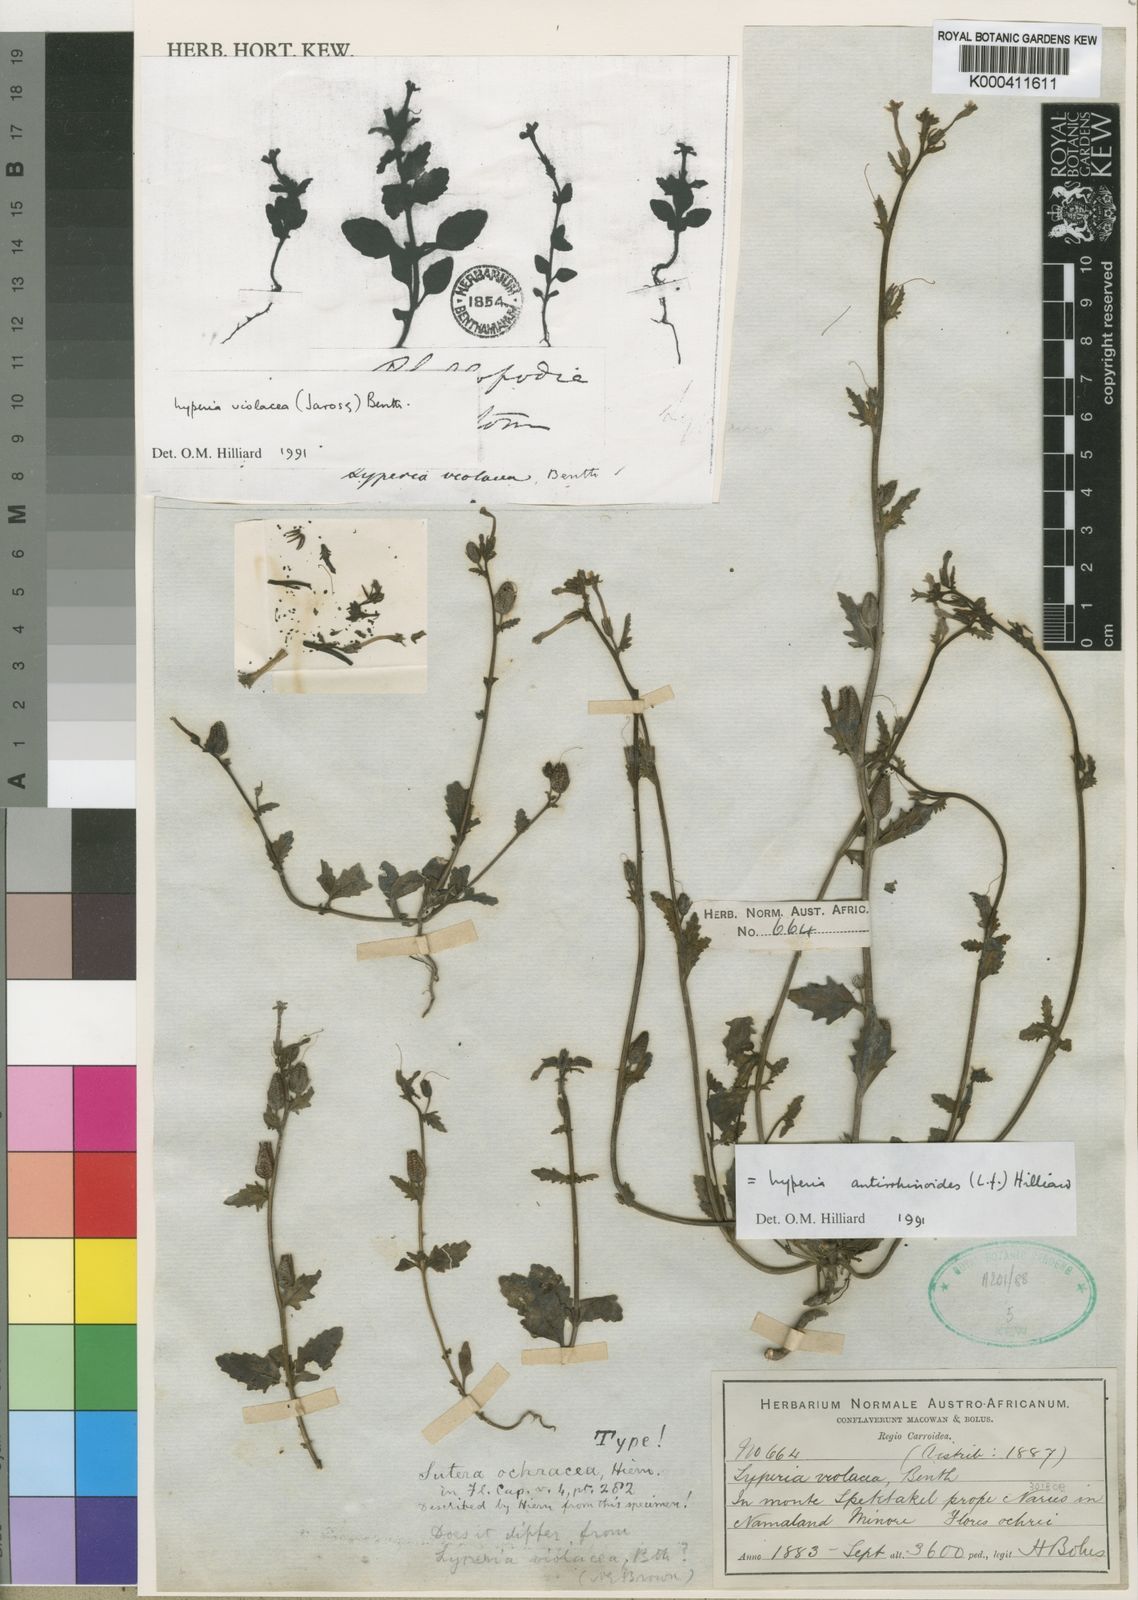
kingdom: Plantae
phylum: Tracheophyta
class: Magnoliopsida
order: Lamiales
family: Scrophulariaceae
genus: Lyperia
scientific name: Lyperia antirrhinoides
